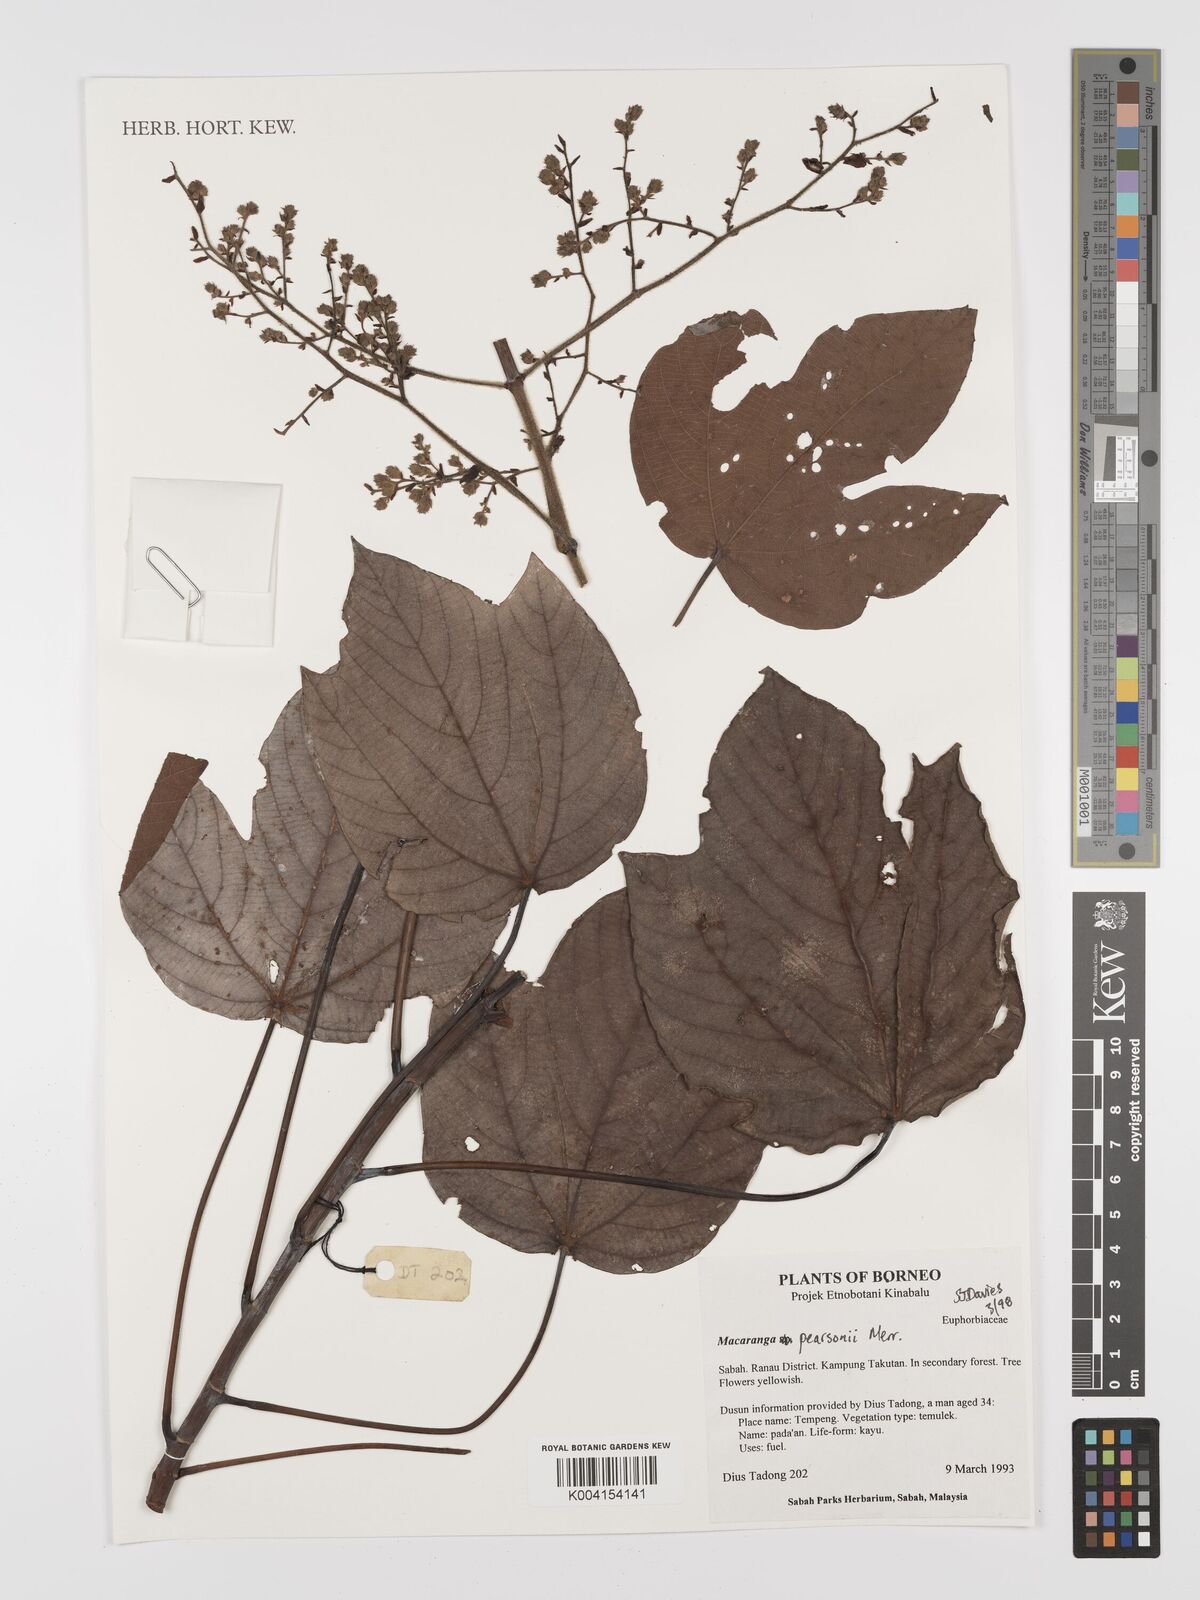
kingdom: Plantae
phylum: Tracheophyta
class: Magnoliopsida
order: Malpighiales
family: Euphorbiaceae
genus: Macaranga
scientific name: Macaranga pearsonii
